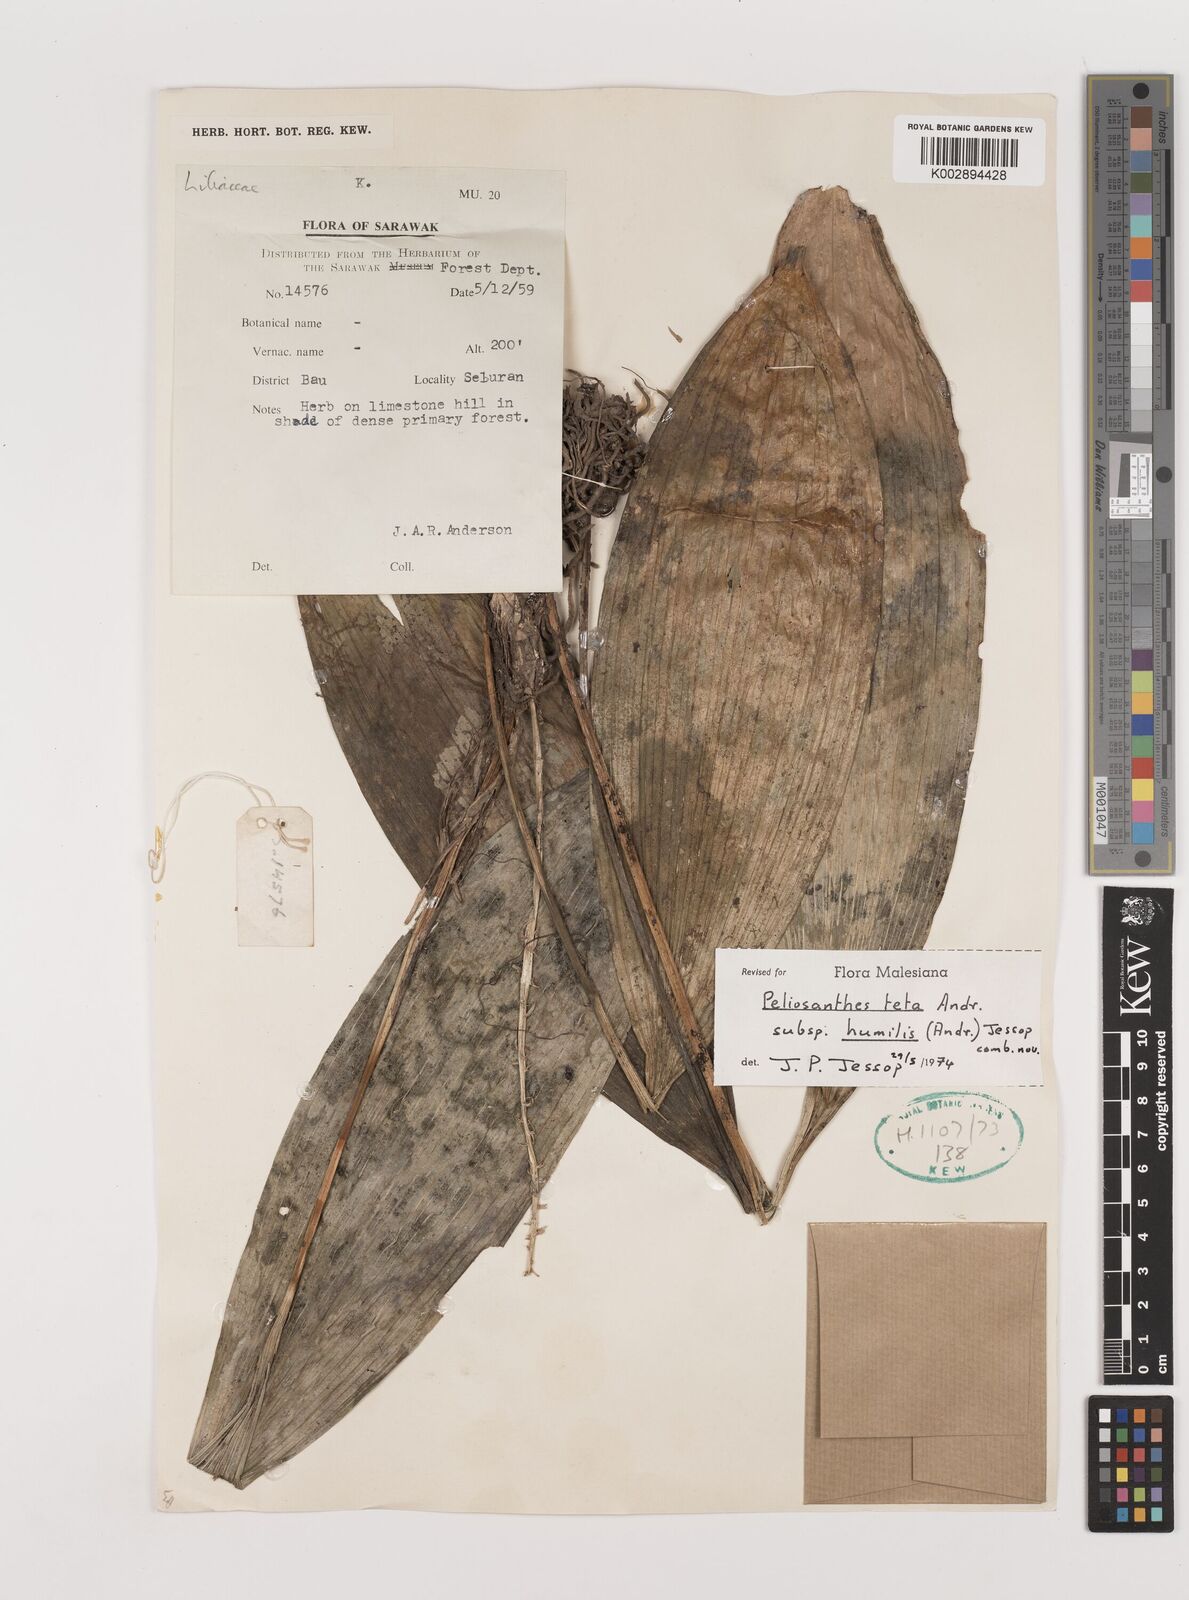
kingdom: Plantae
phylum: Tracheophyta
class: Liliopsida
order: Asparagales
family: Asparagaceae
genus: Peliosanthes
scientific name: Peliosanthes teta
